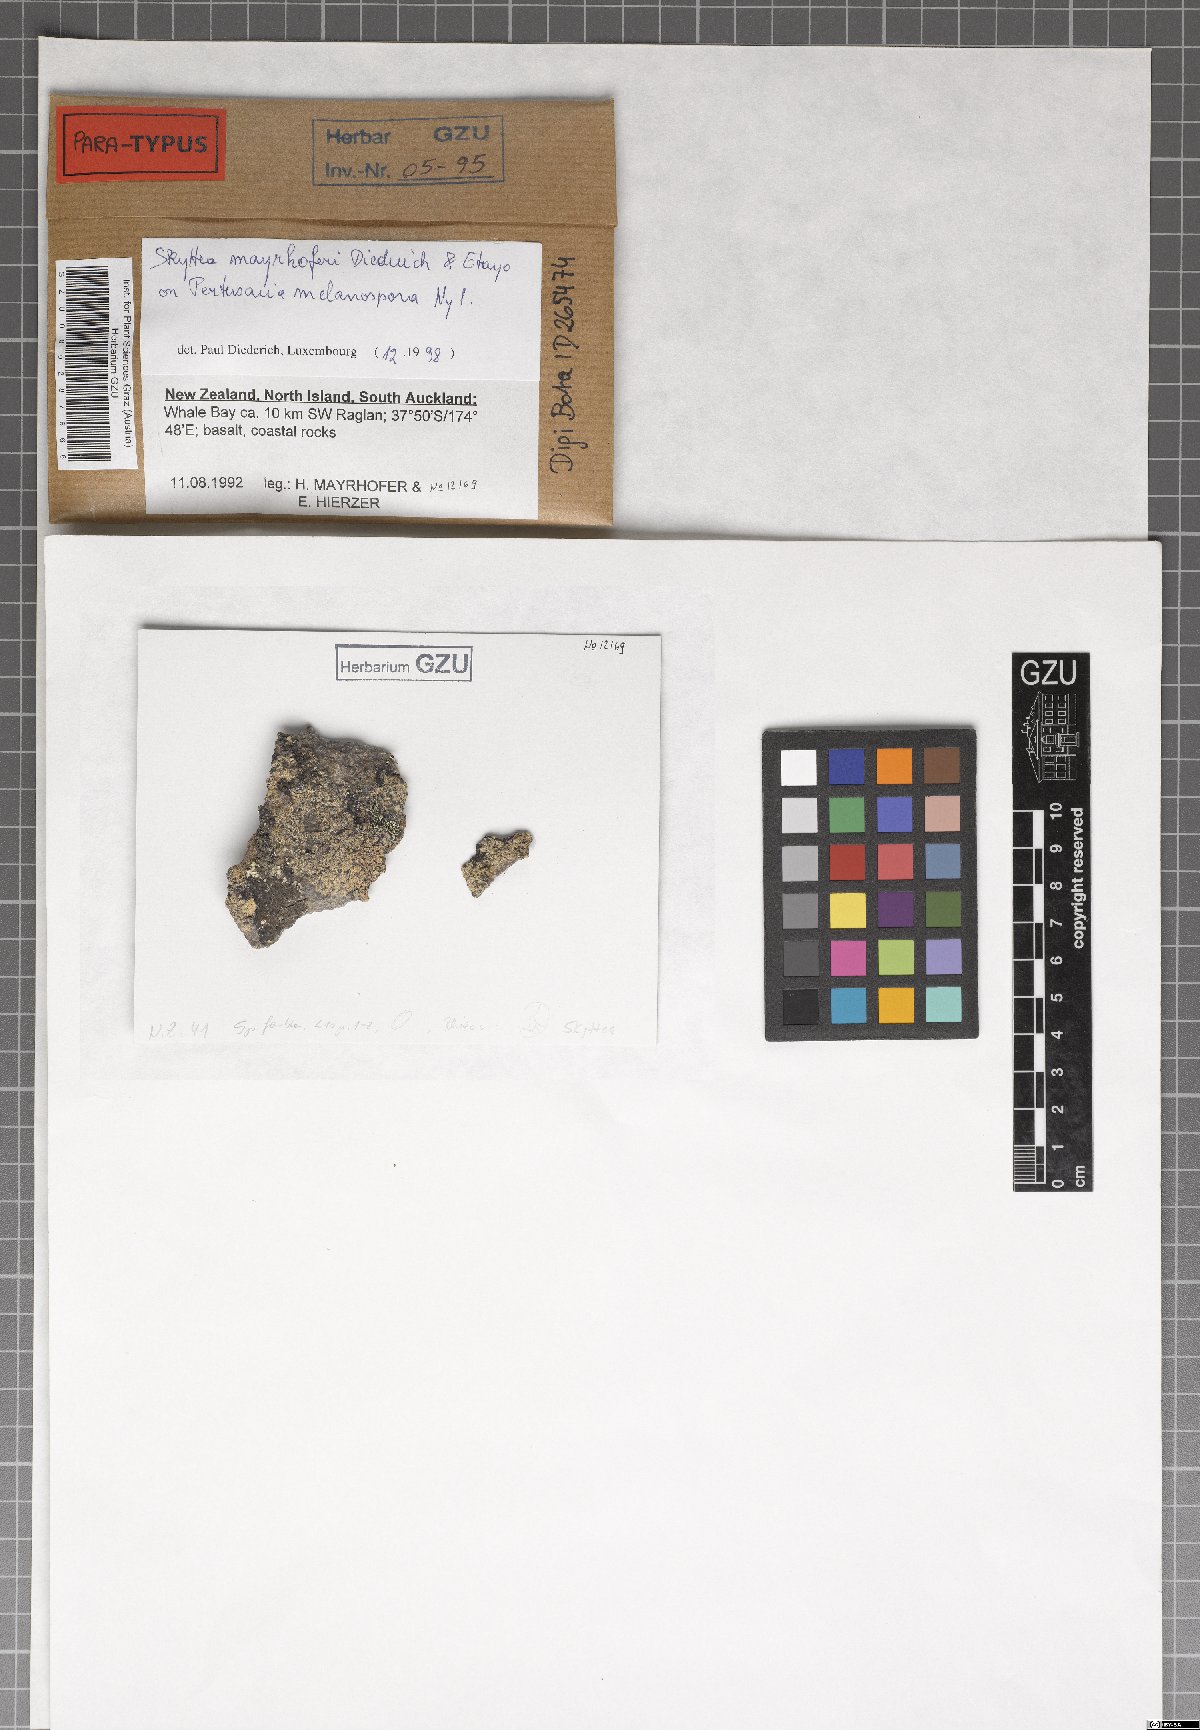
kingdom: Fungi
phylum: Ascomycota
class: Leotiomycetes
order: Helotiales
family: Cordieritidaceae
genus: Skyttea
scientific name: Skyttea mayrhoferi
